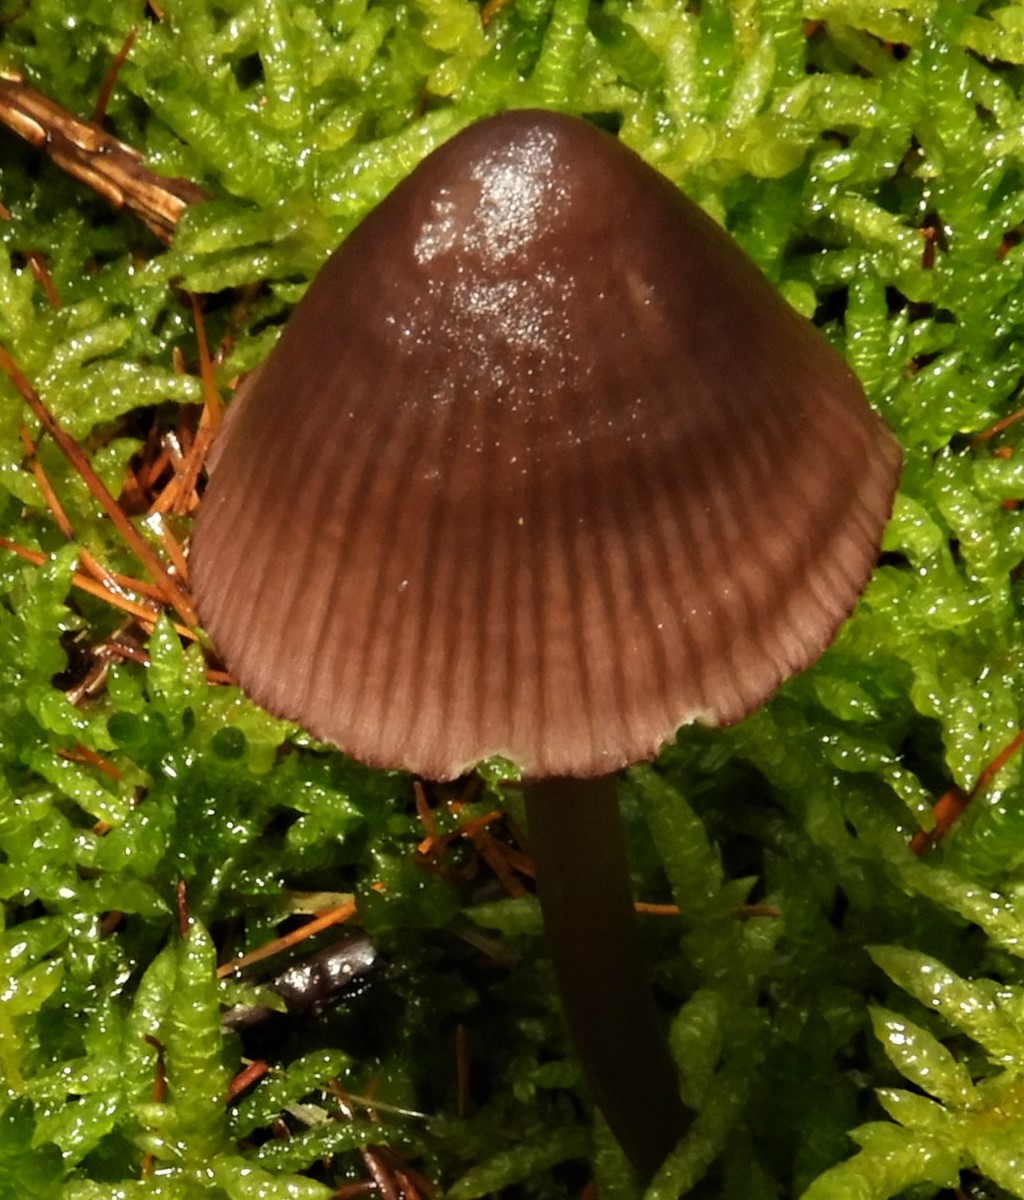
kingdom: Fungi
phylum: Basidiomycota
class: Agaricomycetes
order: Agaricales
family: Mycenaceae
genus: Mycena
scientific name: Mycena purpureofusca
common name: purpur-huesvamp
